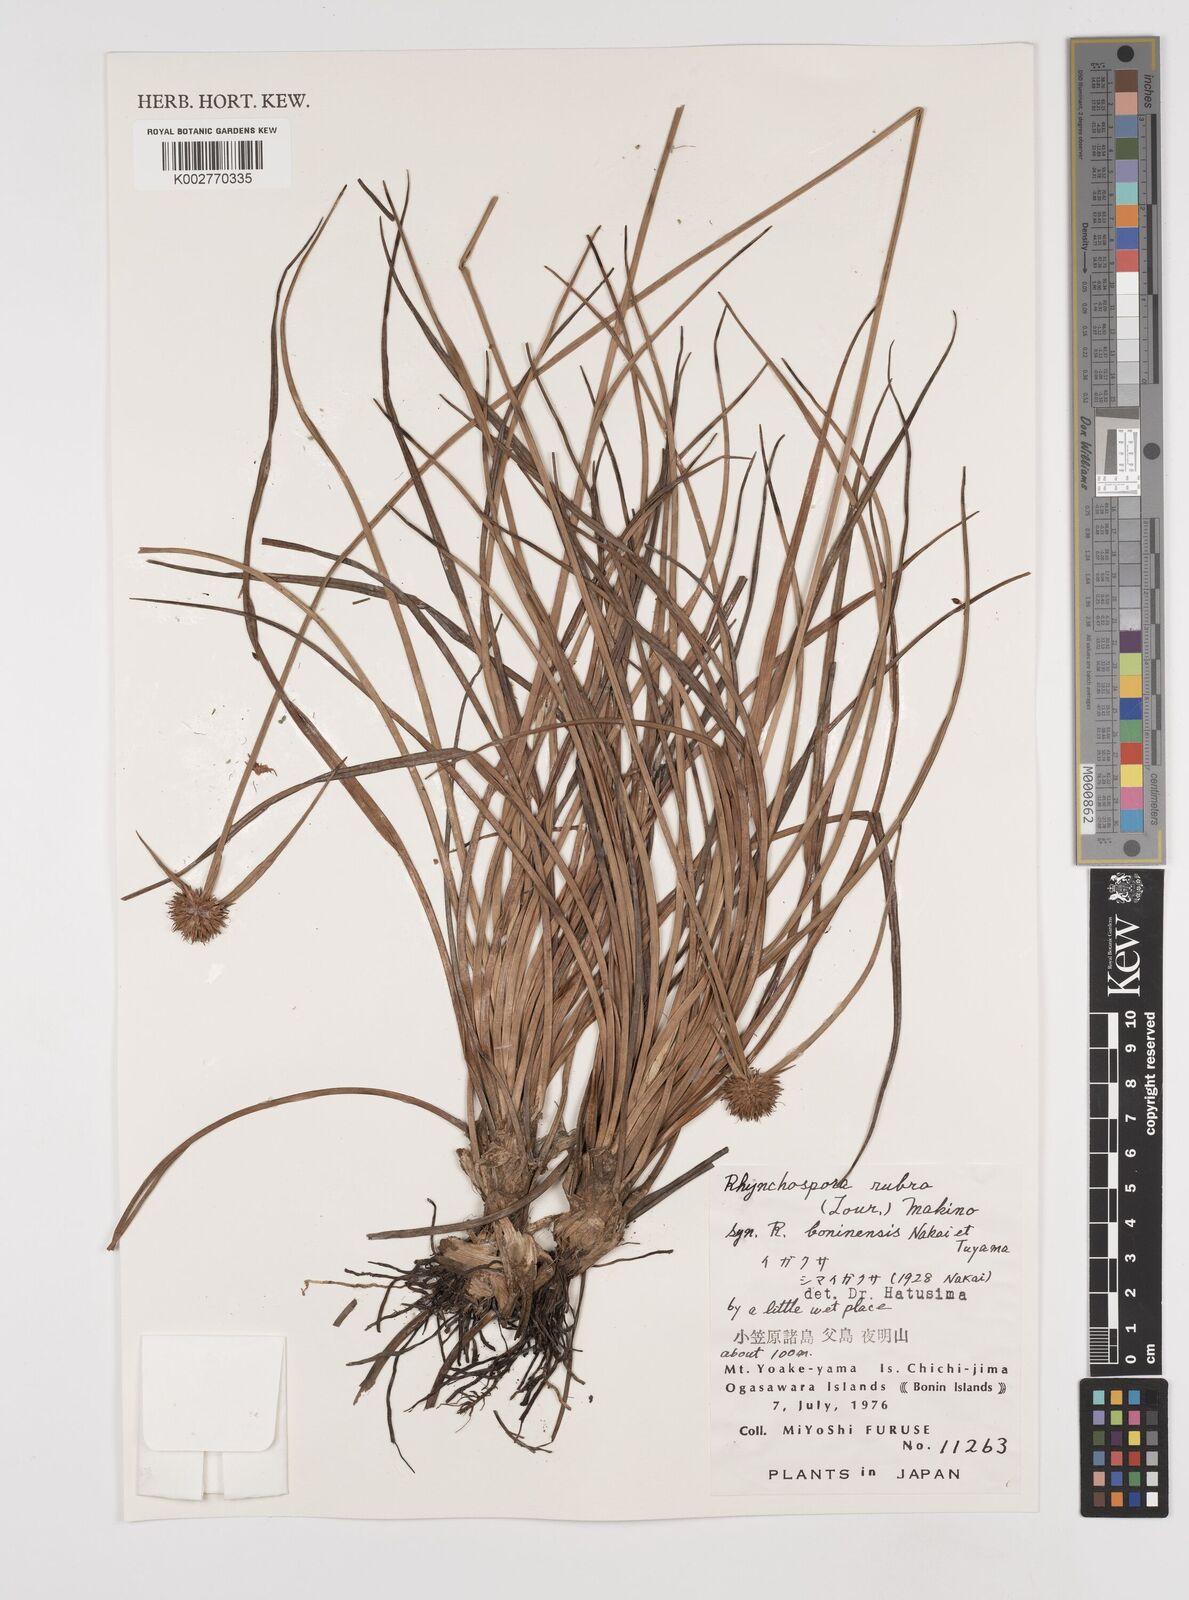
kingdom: Plantae
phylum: Tracheophyta
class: Liliopsida
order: Poales
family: Cyperaceae
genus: Rhynchospora
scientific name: Rhynchospora rubra
